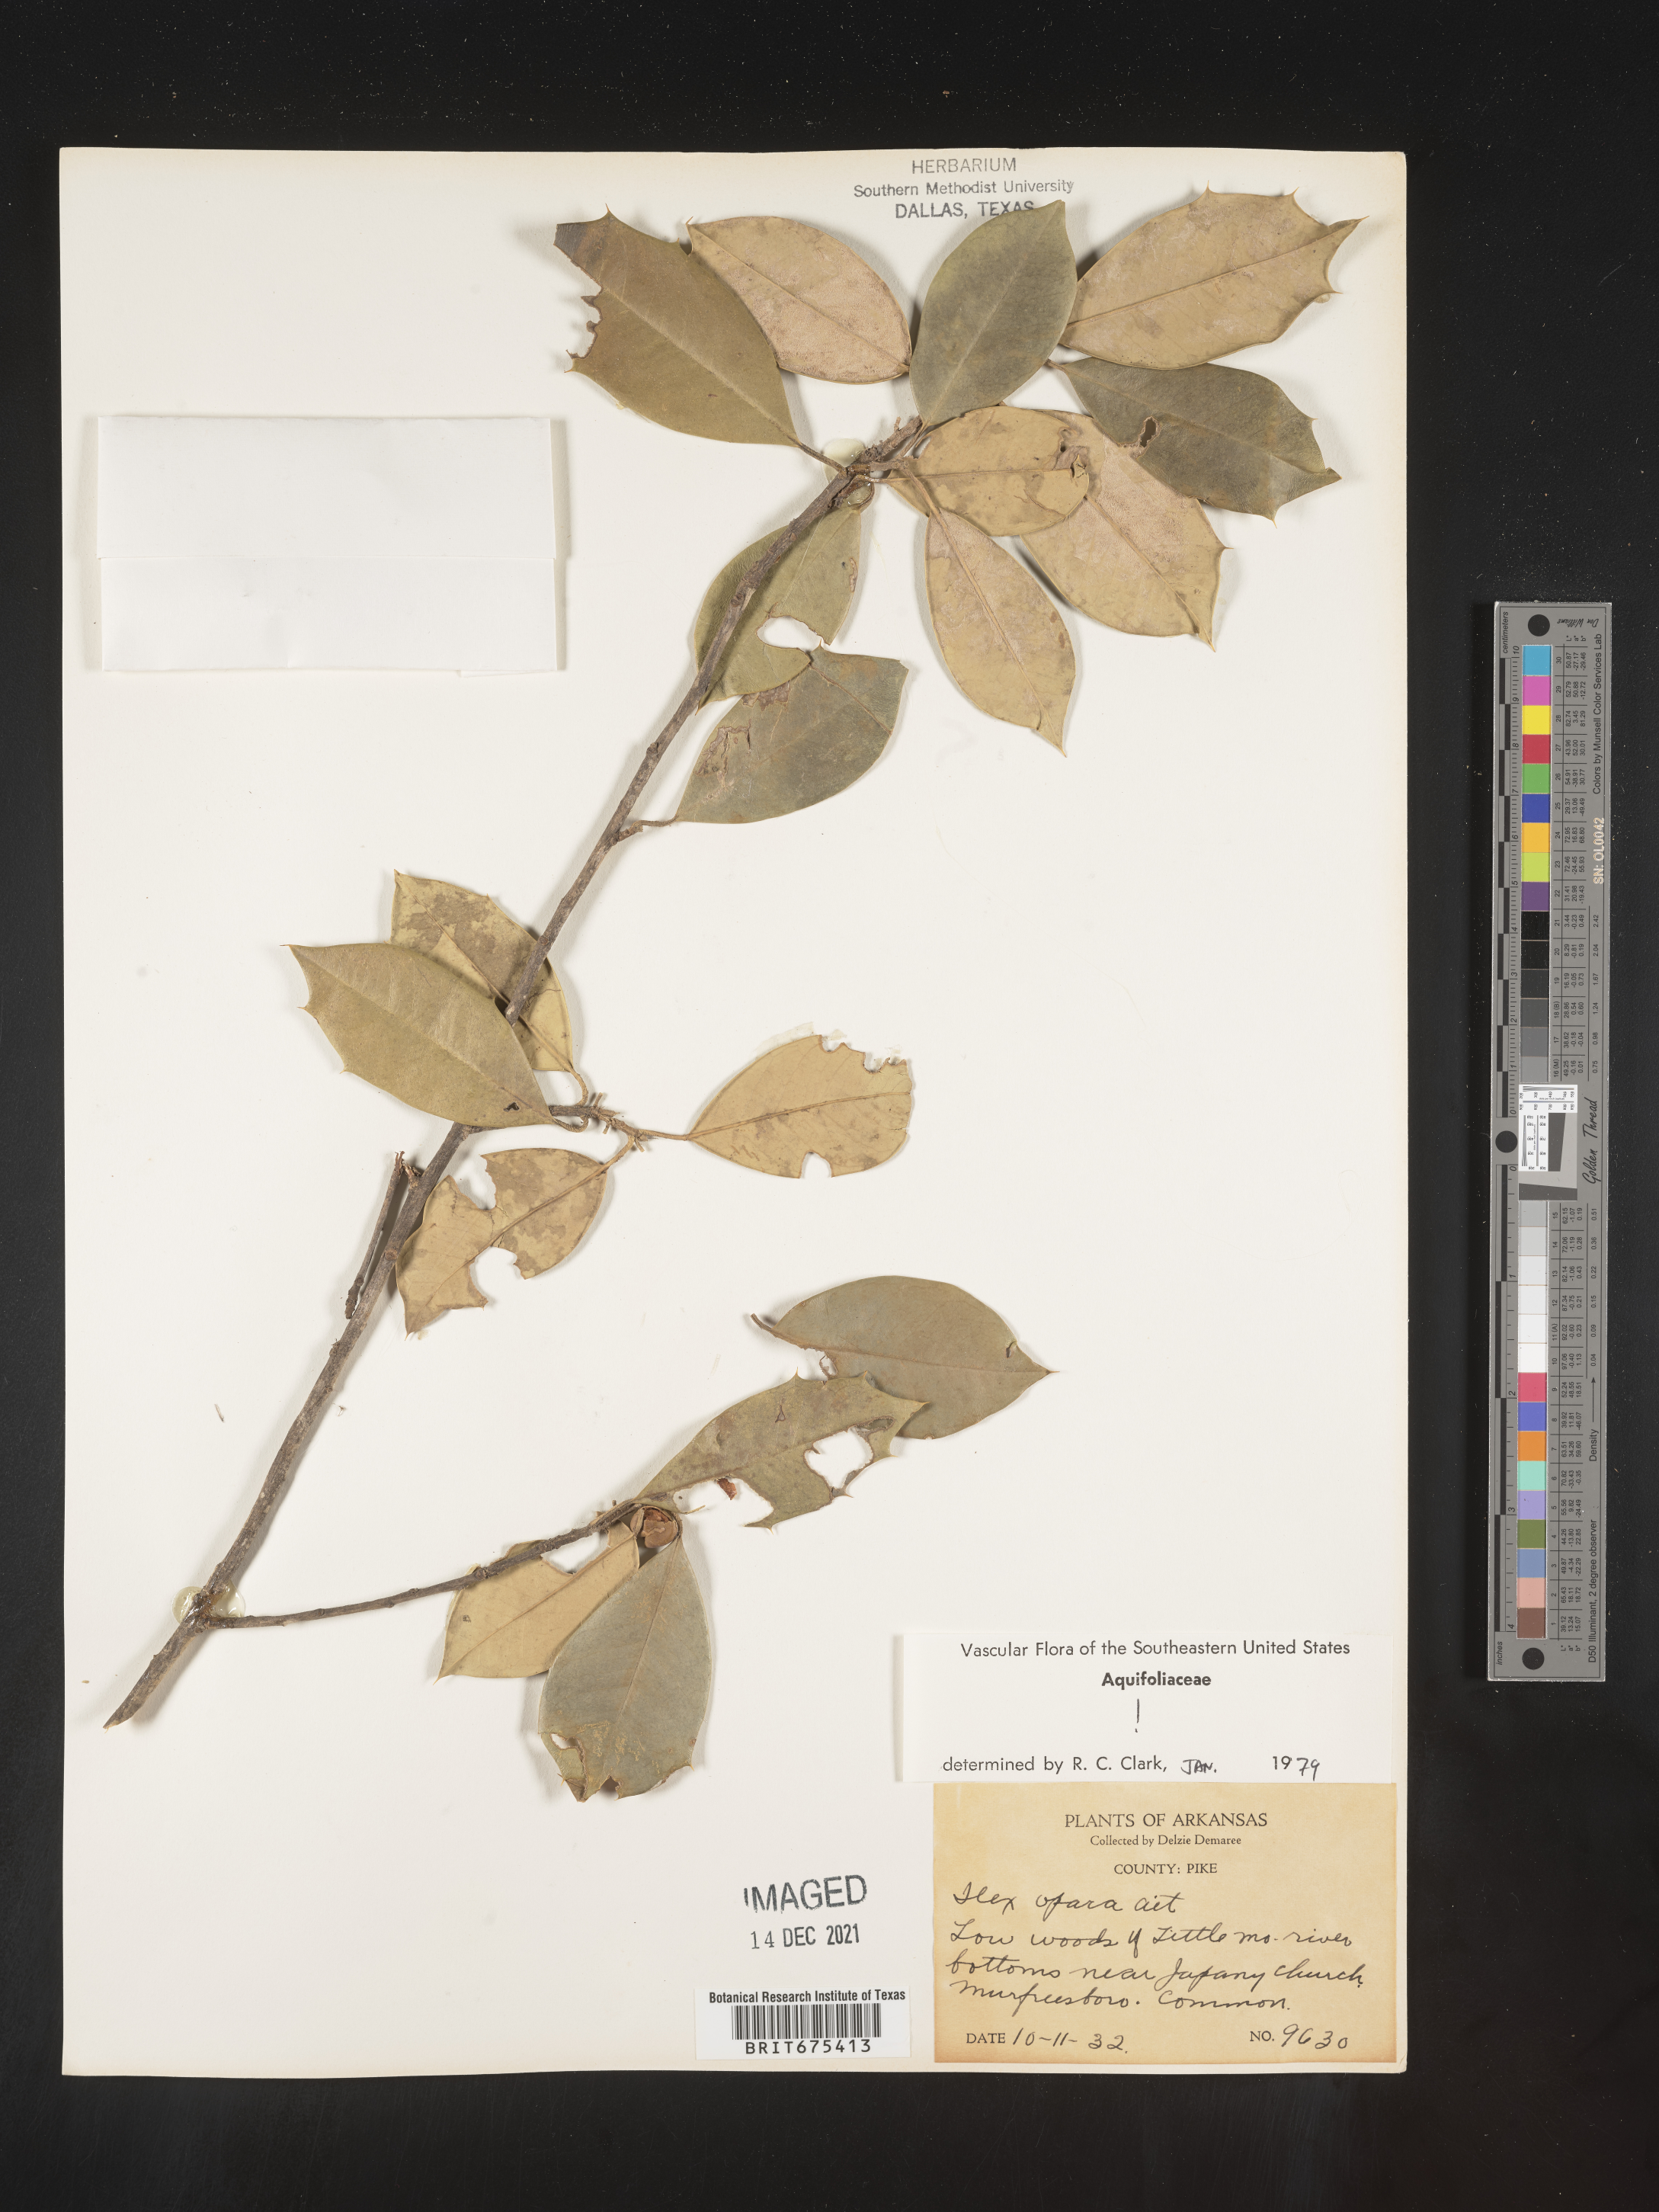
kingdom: Plantae
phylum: Tracheophyta
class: Magnoliopsida
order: Aquifoliales
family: Aquifoliaceae
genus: Ilex
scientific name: Ilex opaca
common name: American holly
